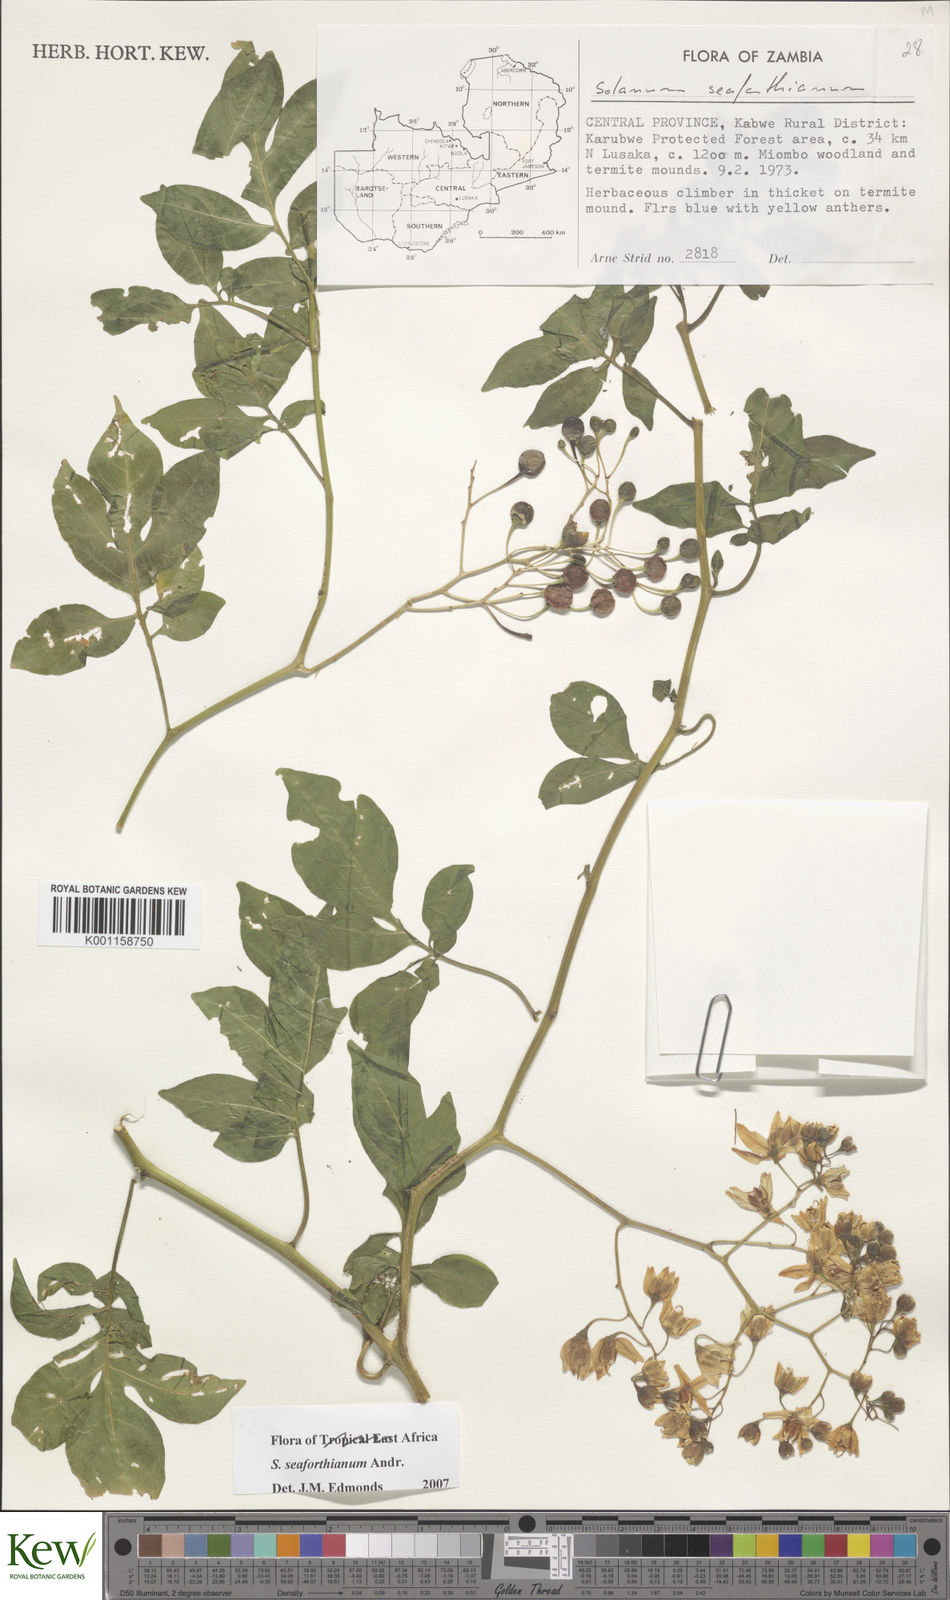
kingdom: Plantae
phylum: Tracheophyta
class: Magnoliopsida
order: Solanales
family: Solanaceae
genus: Solanum
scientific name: Solanum seaforthianum
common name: Brazilian nightshade
